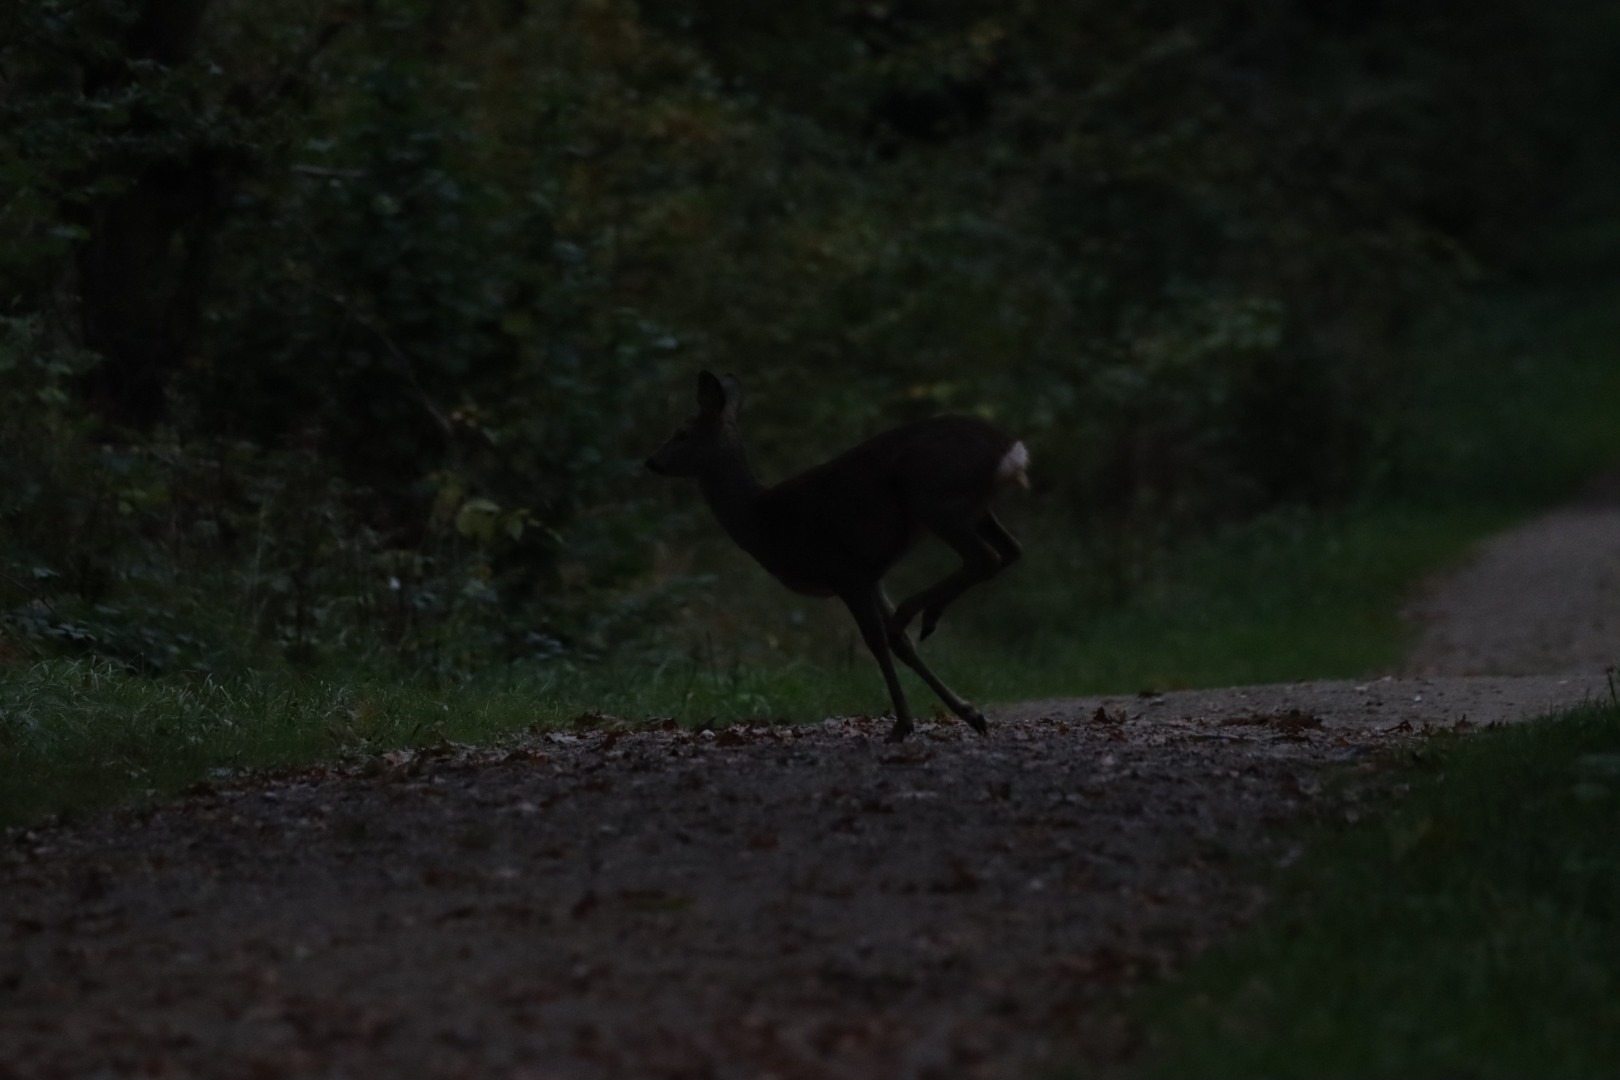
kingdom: Animalia
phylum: Chordata
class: Mammalia
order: Artiodactyla
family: Cervidae
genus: Capreolus
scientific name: Capreolus capreolus
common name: Rådyr
